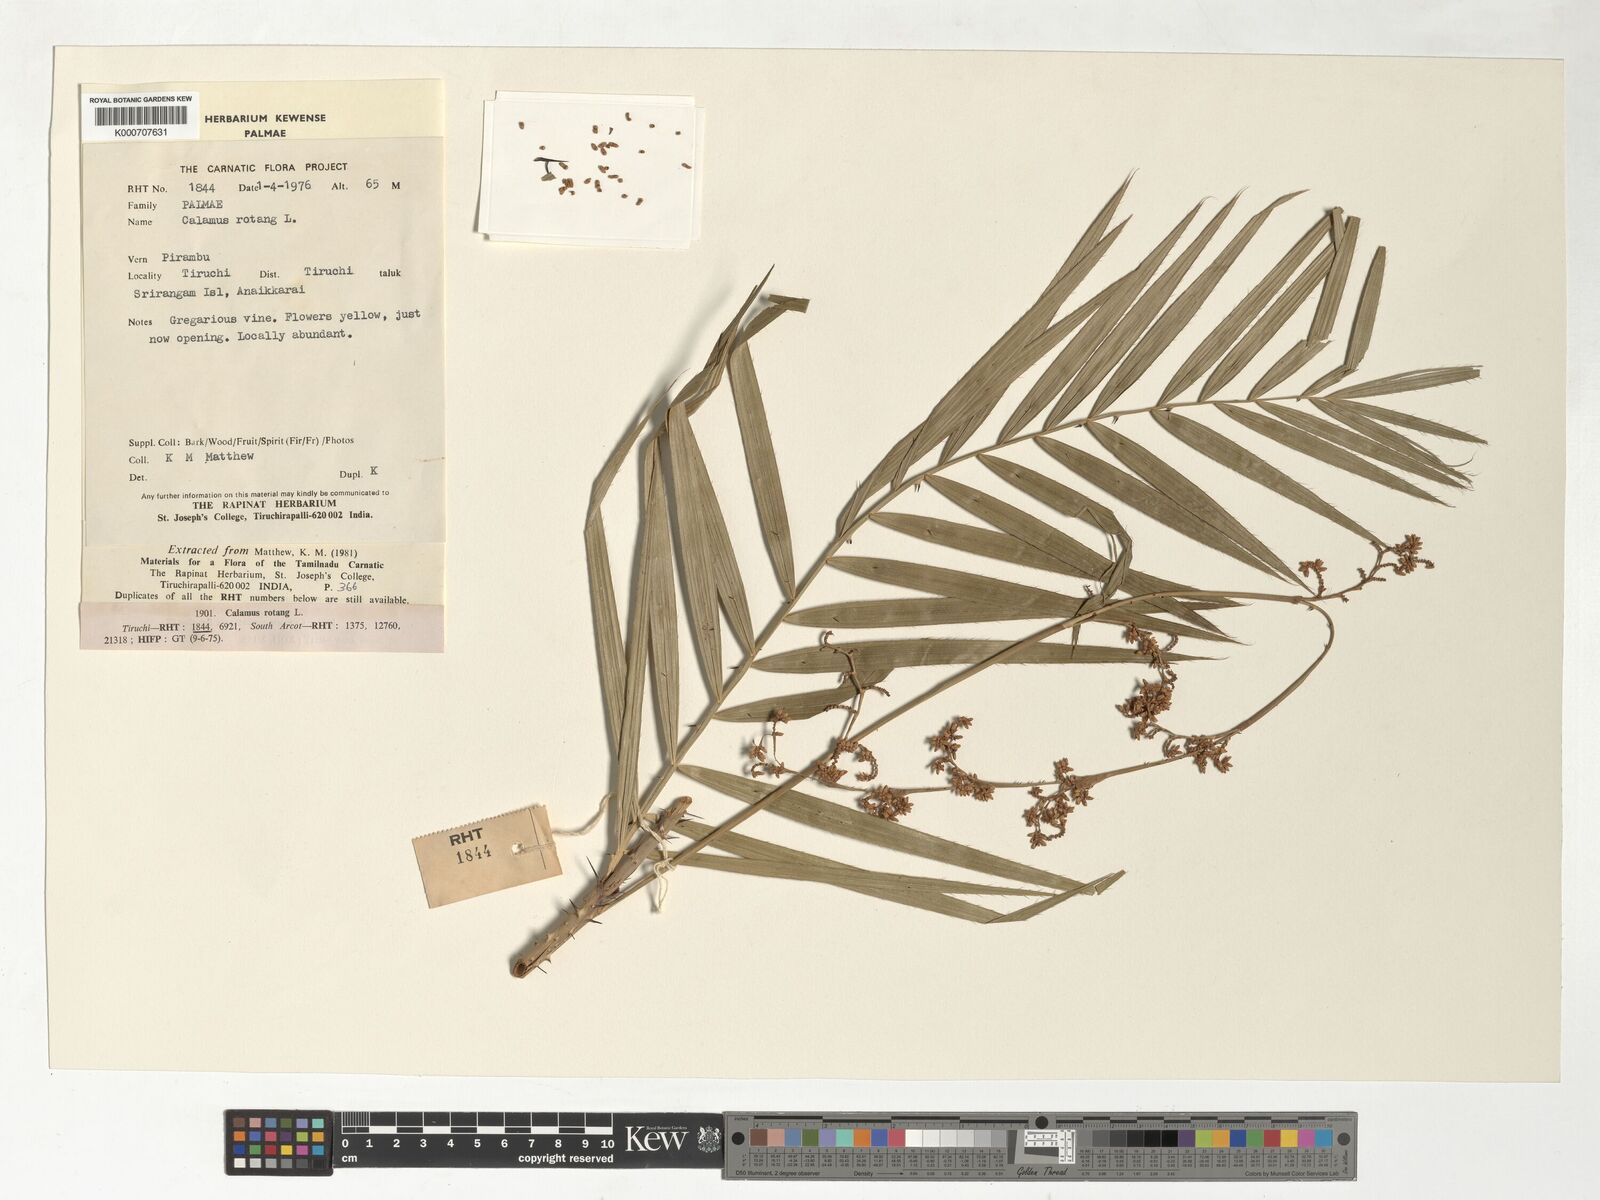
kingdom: Plantae
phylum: Tracheophyta
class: Liliopsida
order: Arecales
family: Arecaceae
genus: Calamus
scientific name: Calamus rotang
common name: Rattan cane
